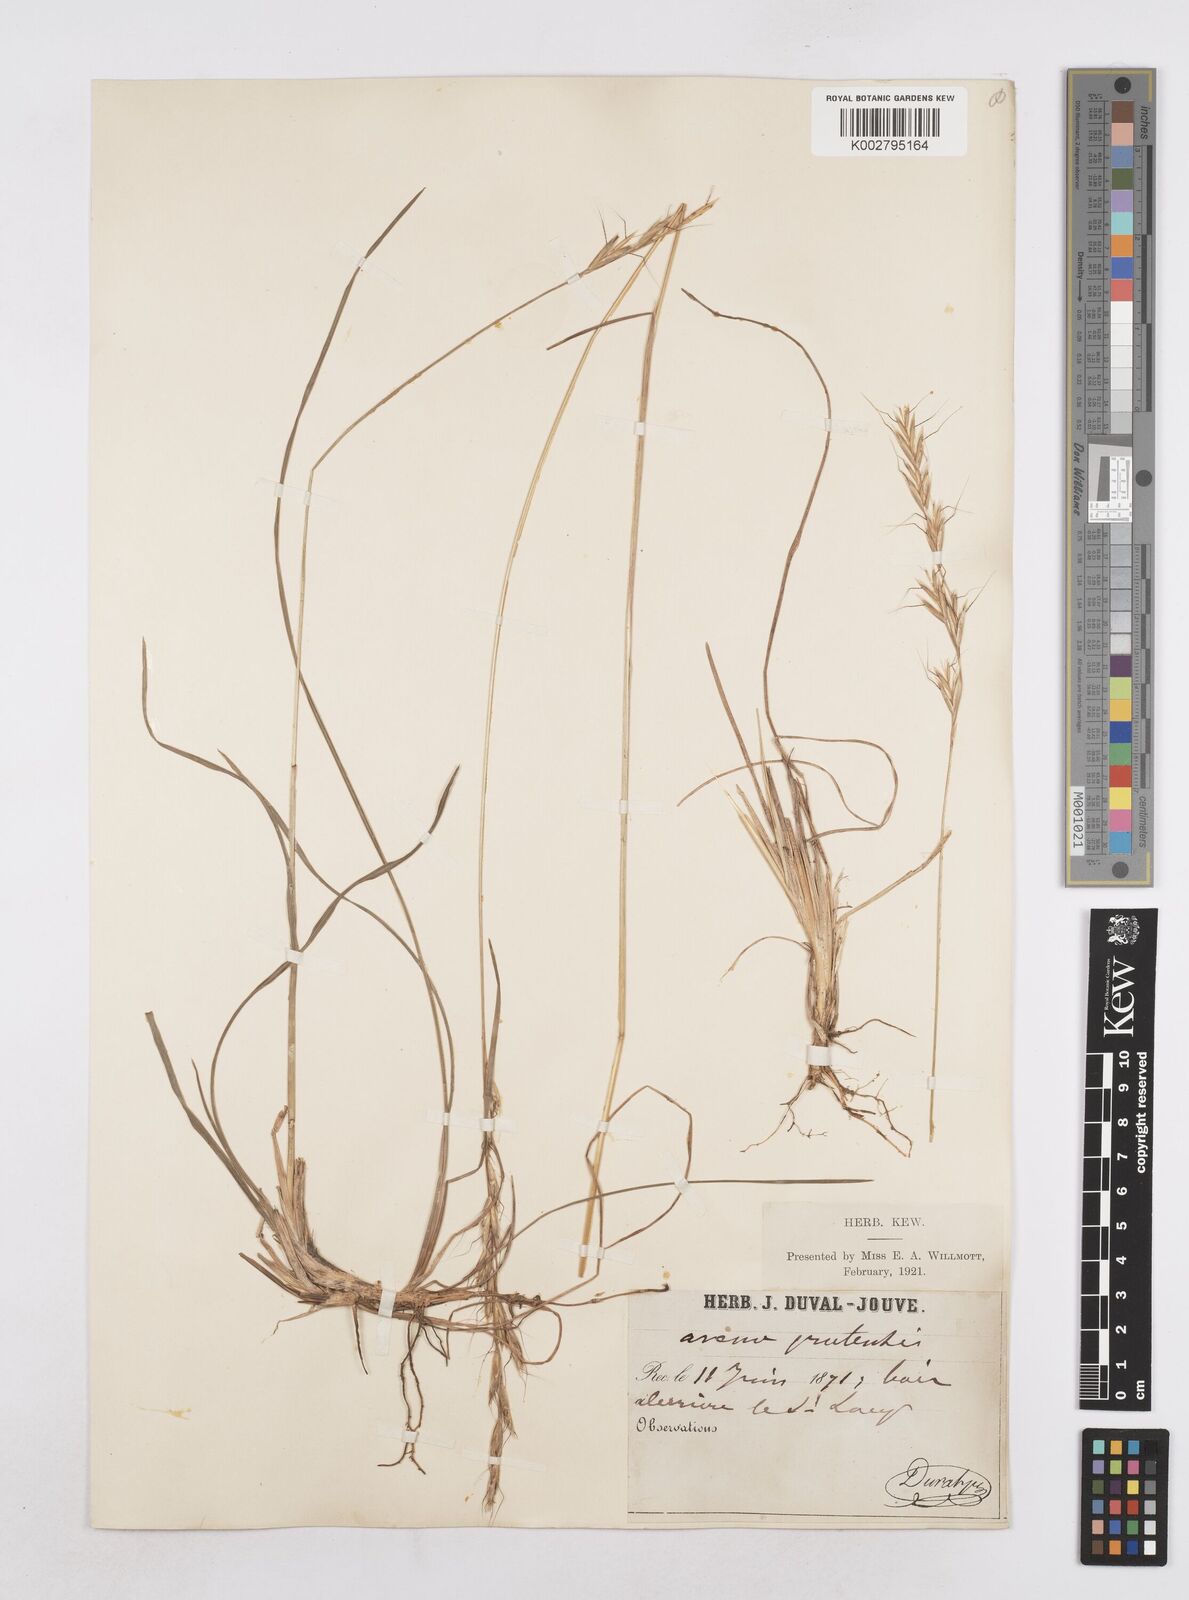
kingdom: Plantae
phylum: Tracheophyta
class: Liliopsida
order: Poales
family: Poaceae
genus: Helictochloa
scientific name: Helictochloa pratensis
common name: Meadow oat grass
